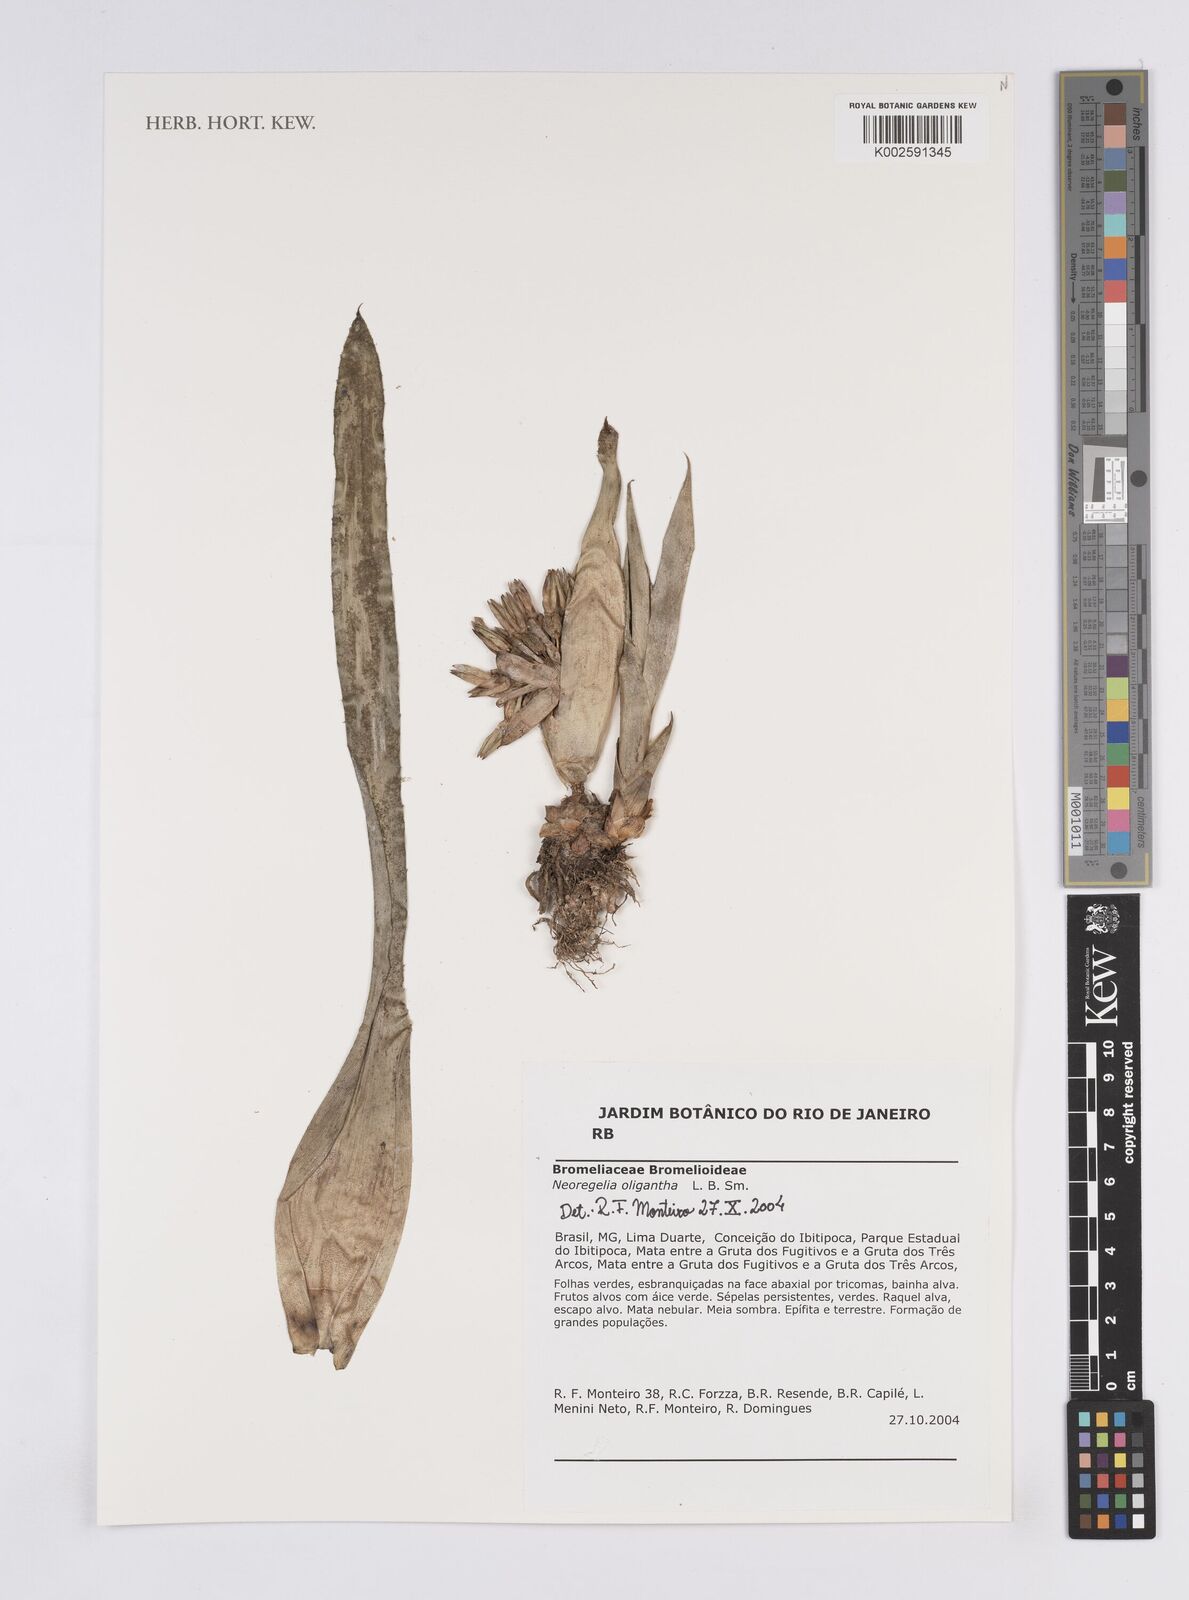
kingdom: Plantae
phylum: Tracheophyta
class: Liliopsida
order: Poales
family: Bromeliaceae
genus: Neoregelia
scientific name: Neoregelia oligantha
